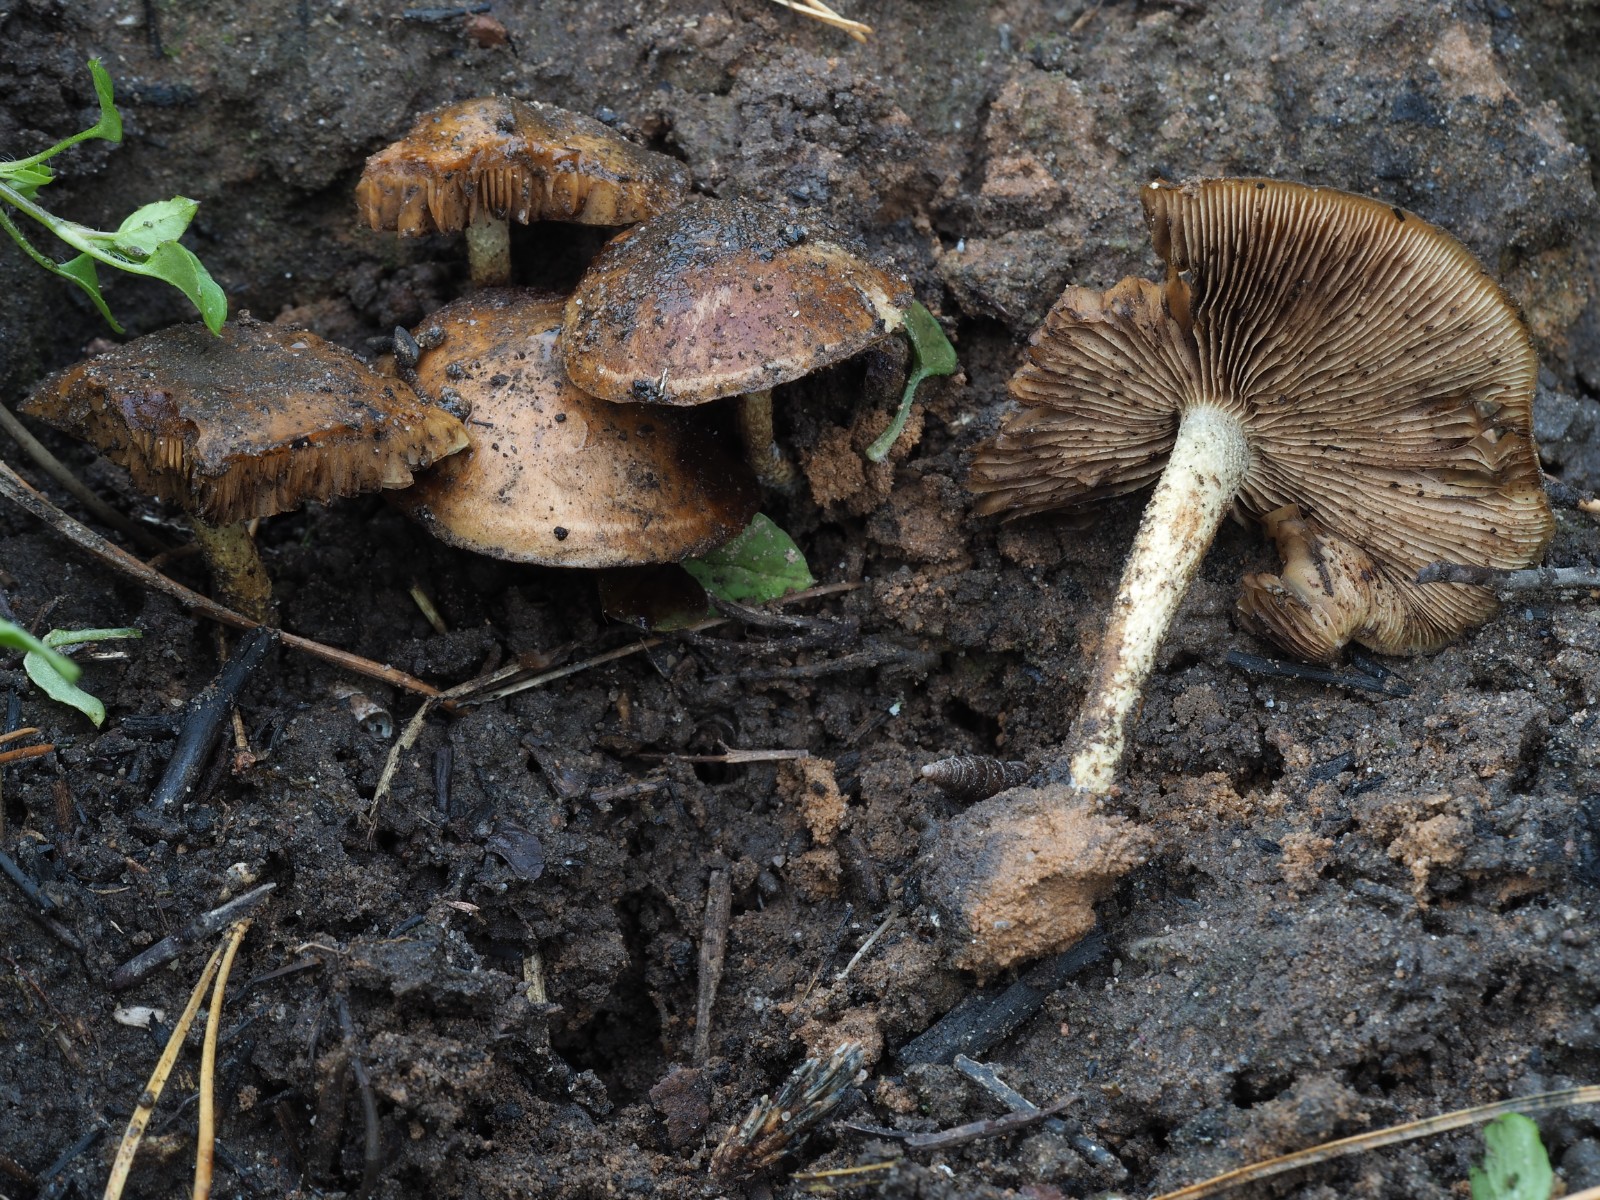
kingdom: Fungi
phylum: Basidiomycota
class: Agaricomycetes
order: Agaricales
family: Strophariaceae
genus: Pholiota
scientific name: Pholiota carbonaria
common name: kul-skælhat
